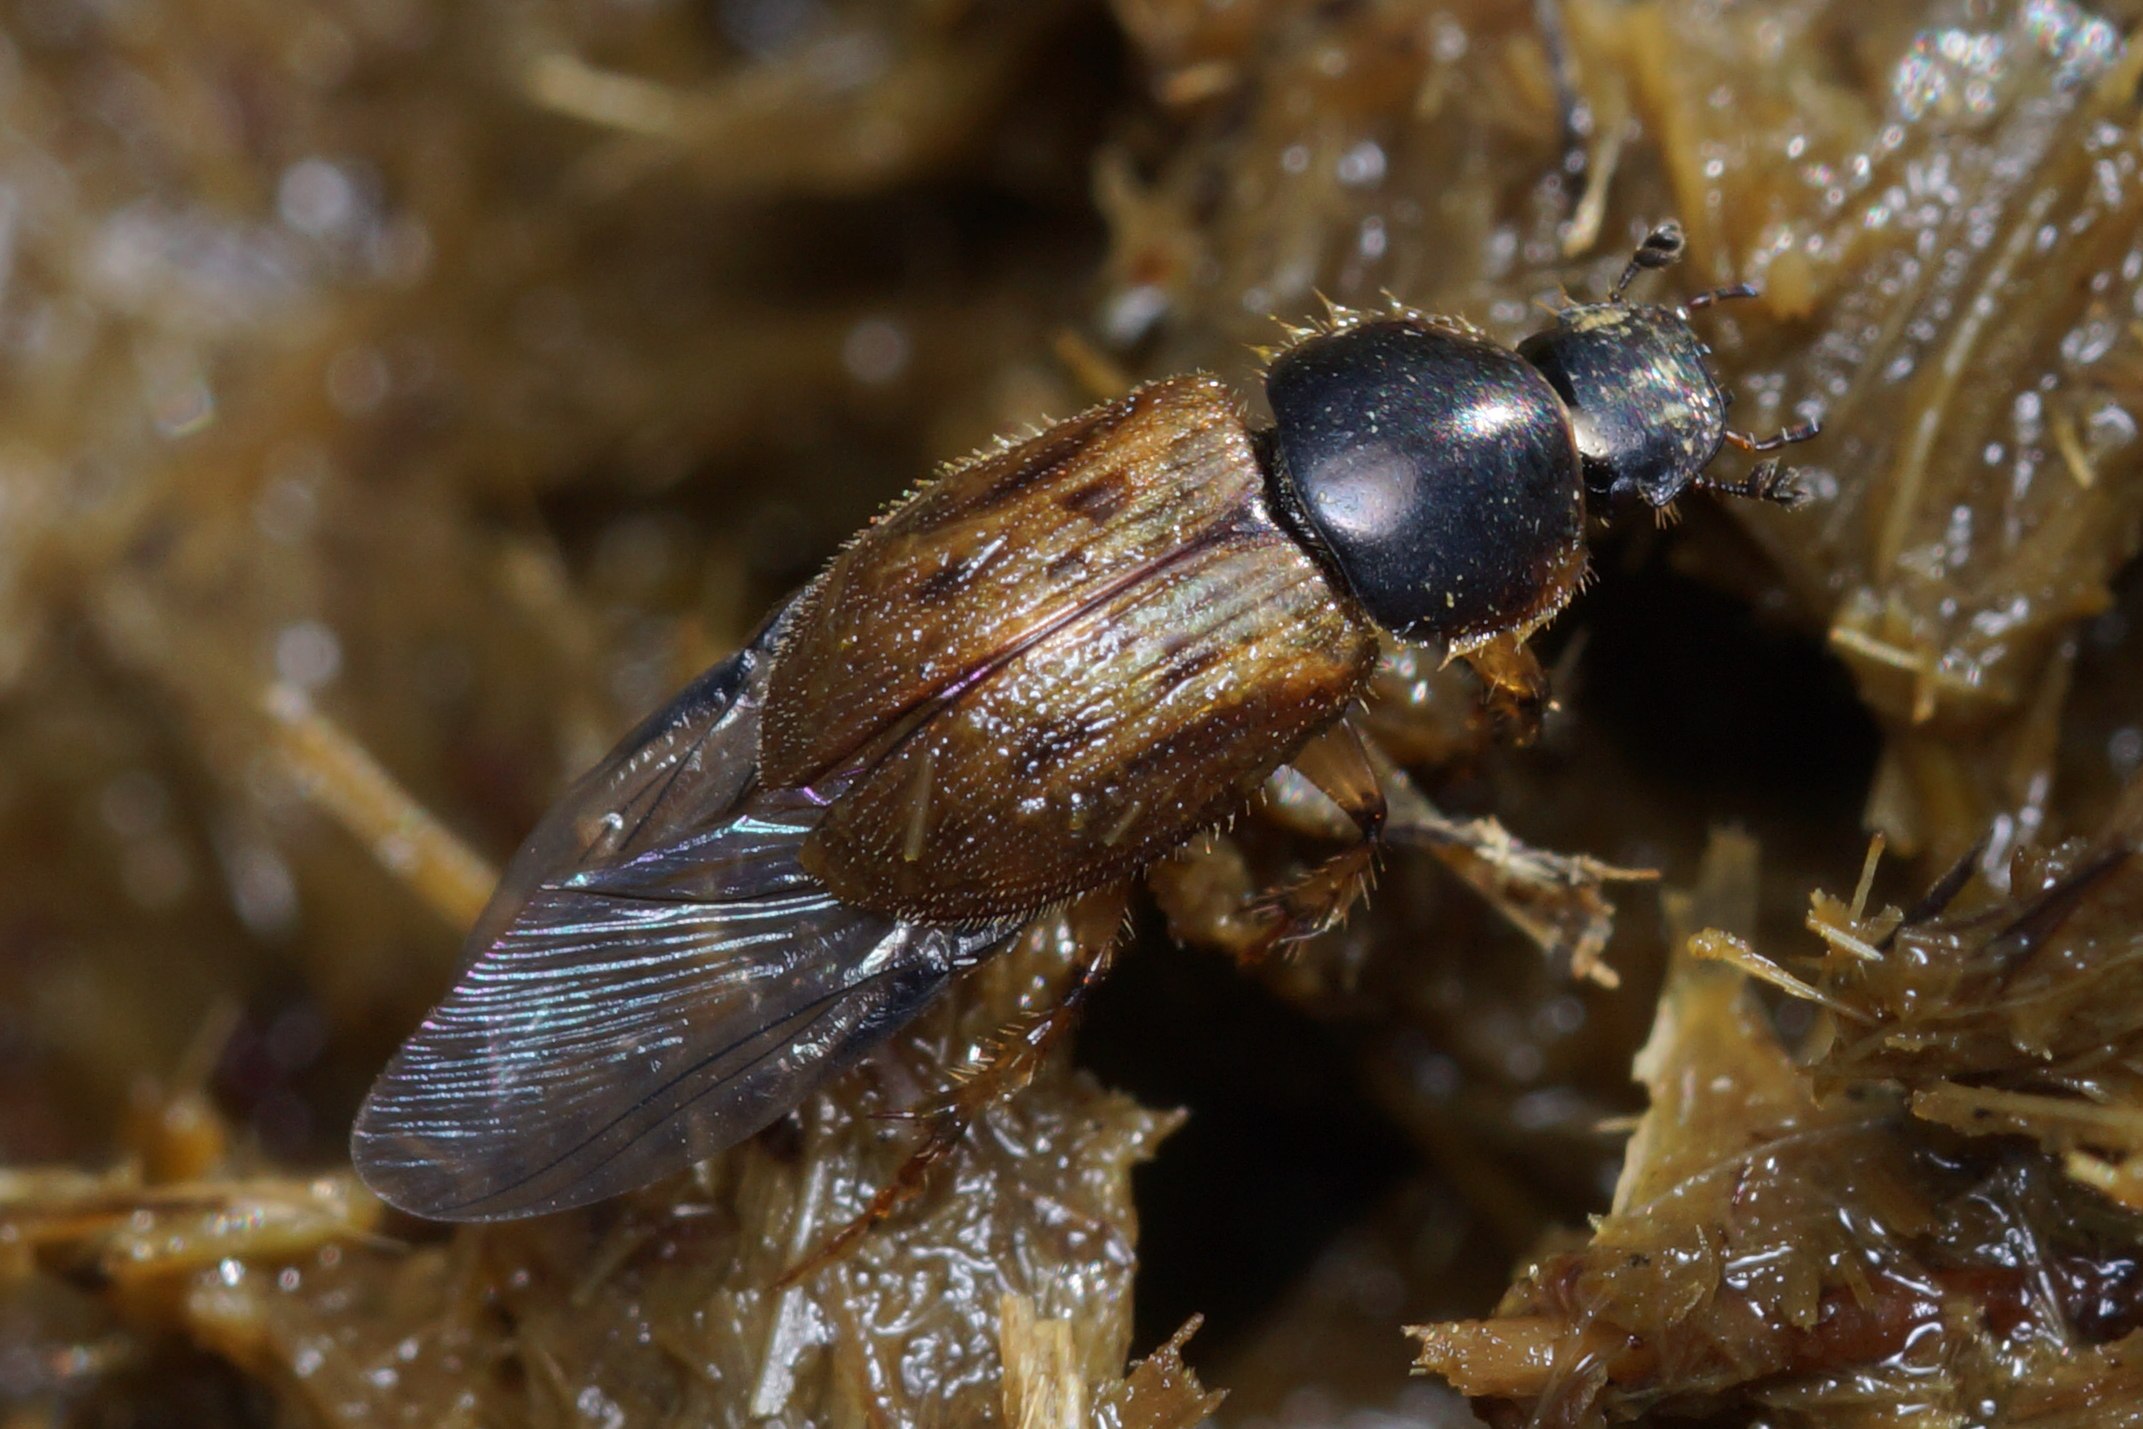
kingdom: Animalia
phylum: Arthropoda
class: Insecta
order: Coleoptera
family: Scarabaeidae
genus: Nimbus
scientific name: Nimbus contaminatus
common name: Sandhåret møgbille
